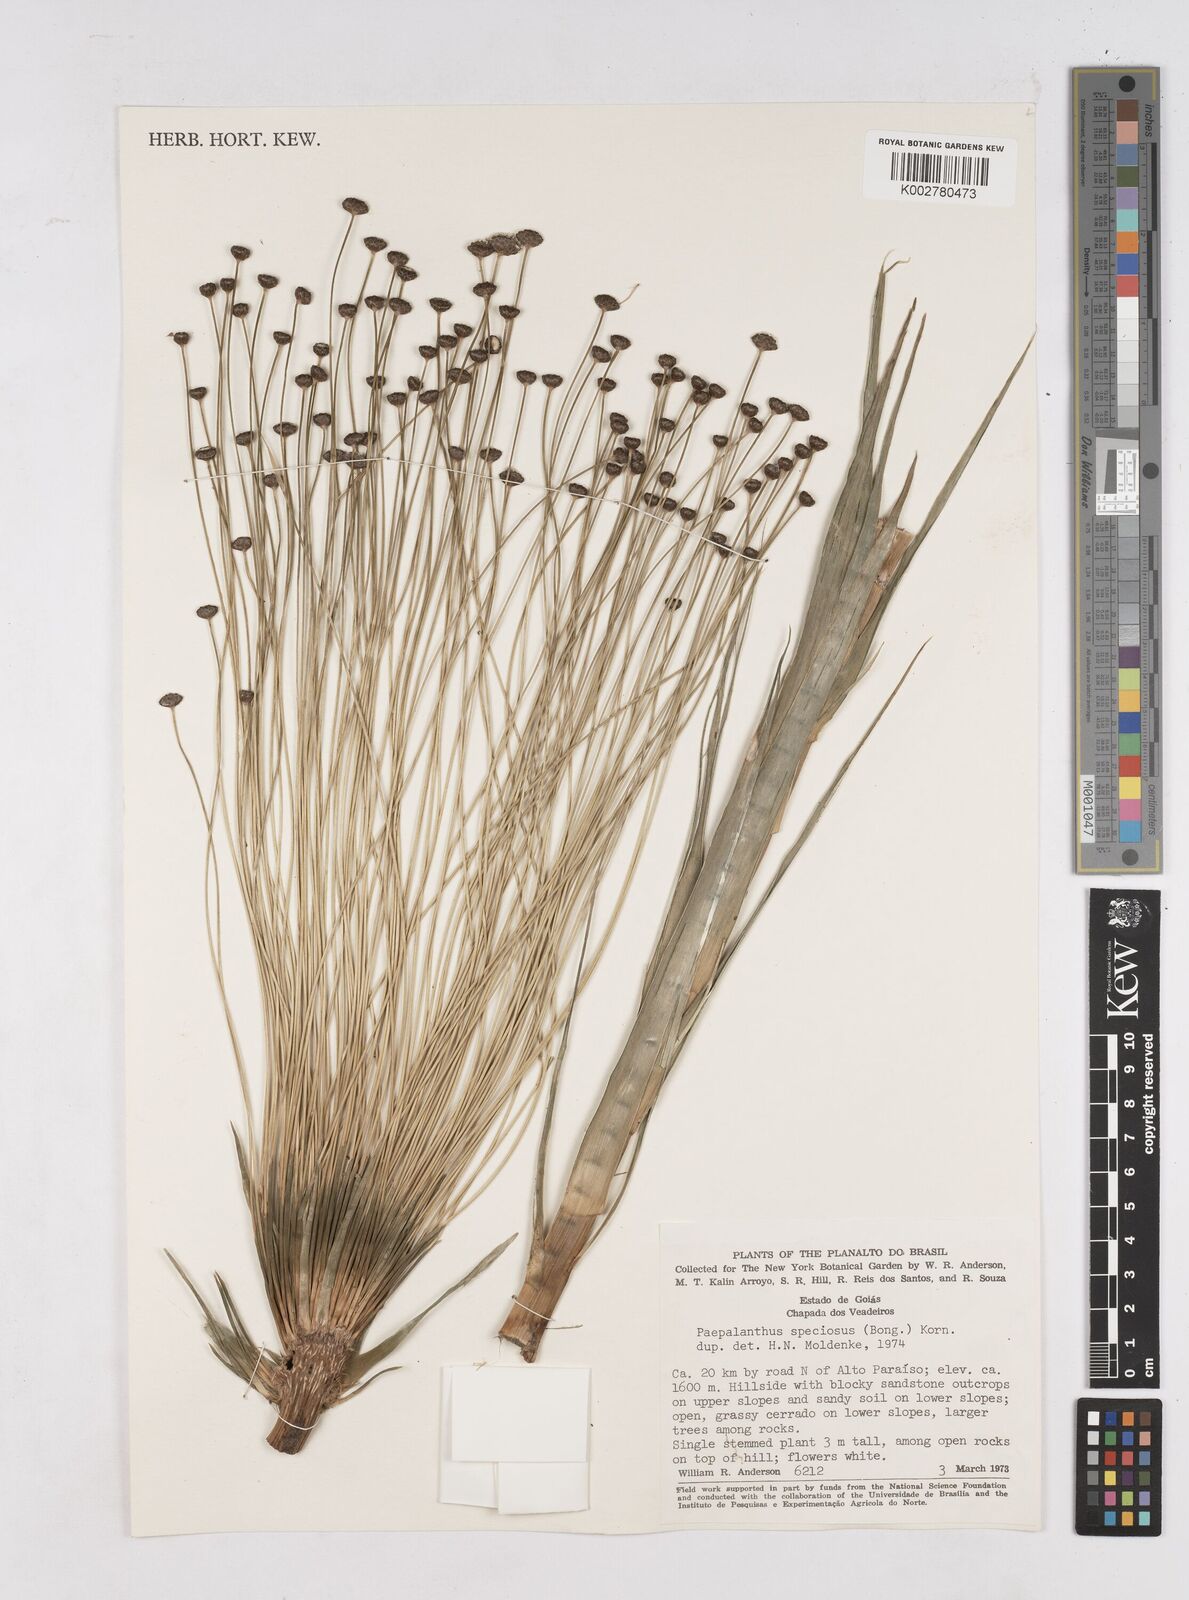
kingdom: Plantae
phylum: Tracheophyta
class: Liliopsida
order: Poales
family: Eriocaulaceae
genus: Paepalanthus
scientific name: Paepalanthus chiquitensis
